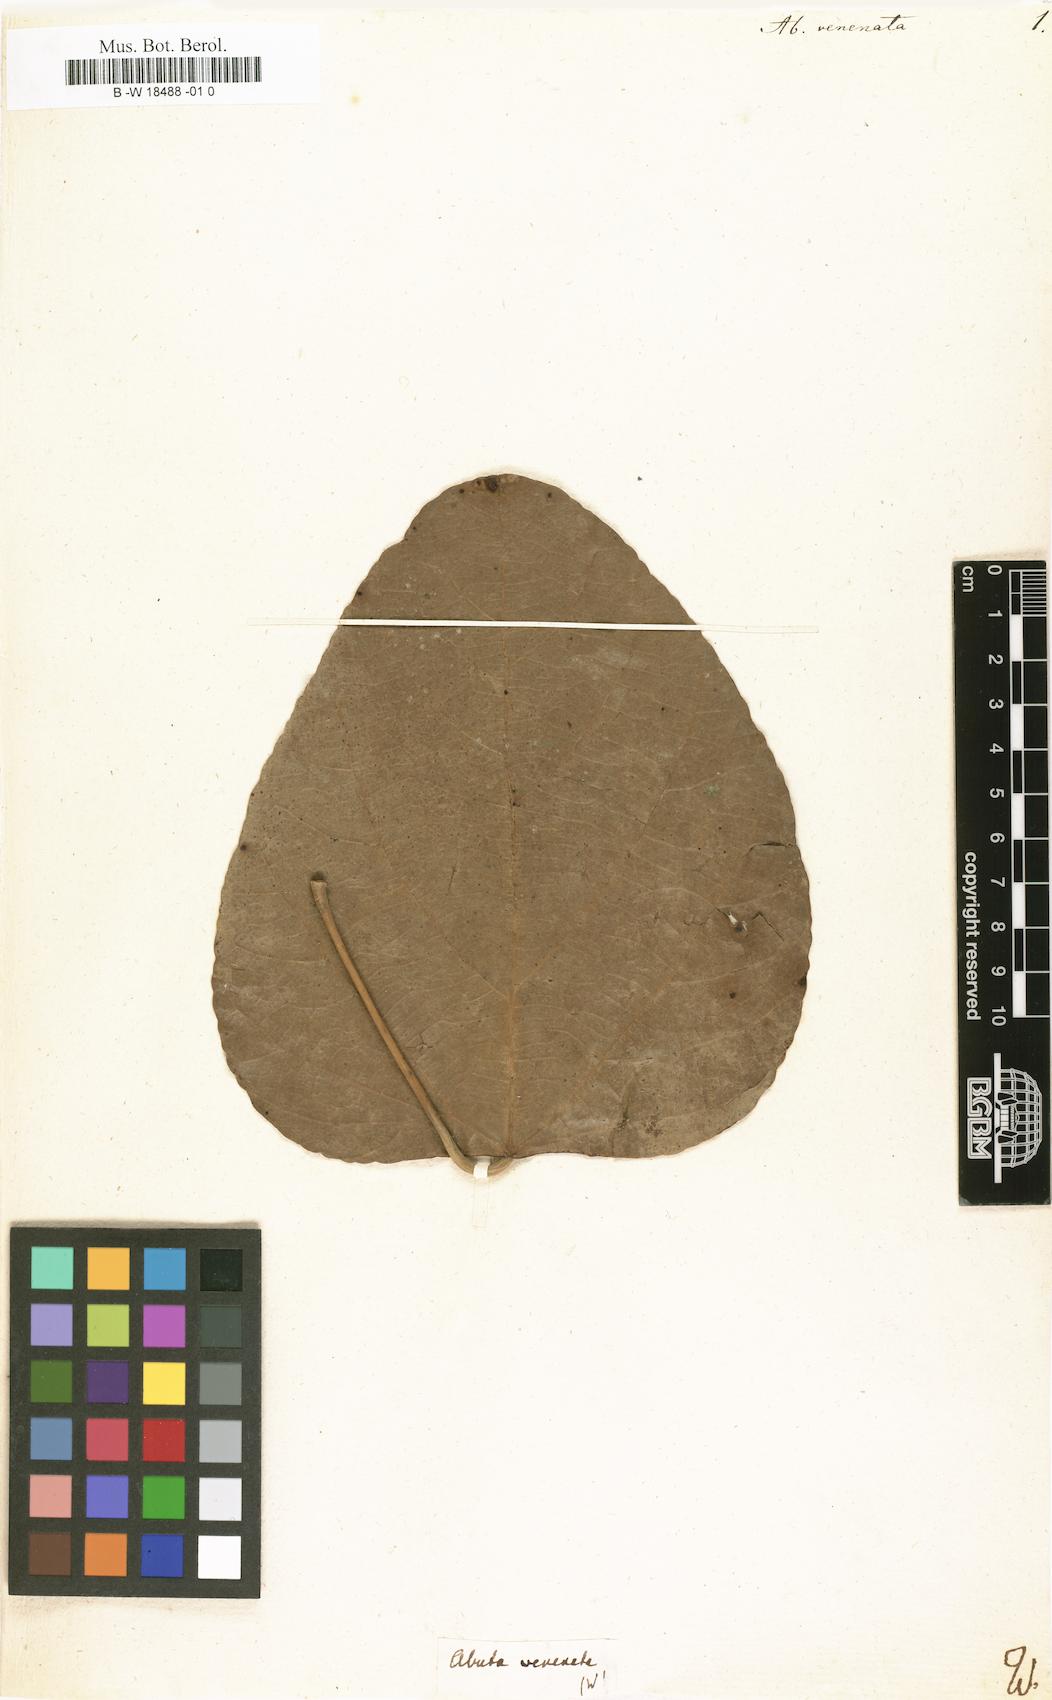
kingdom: Plantae
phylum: Tracheophyta
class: Magnoliopsida
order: Ranunculales
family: Menispermaceae
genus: Abuta
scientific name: Abuta
